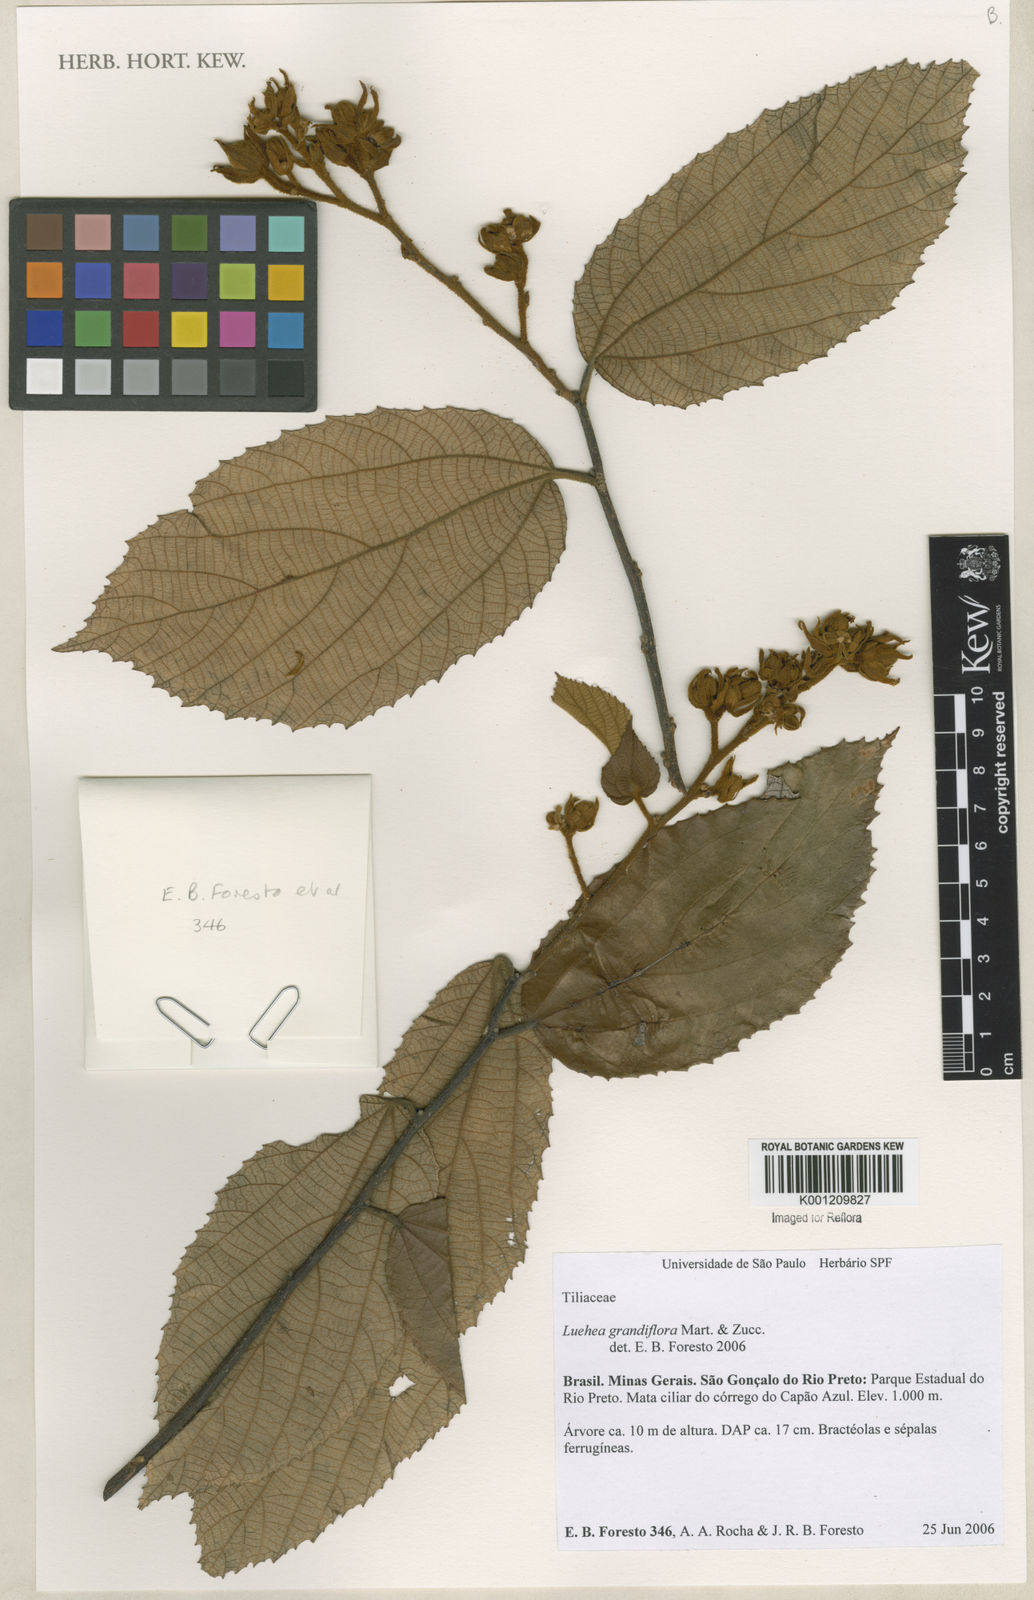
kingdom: Plantae
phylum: Tracheophyta
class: Magnoliopsida
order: Malvales
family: Malvaceae
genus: Luehea
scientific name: Luehea grandiflora
